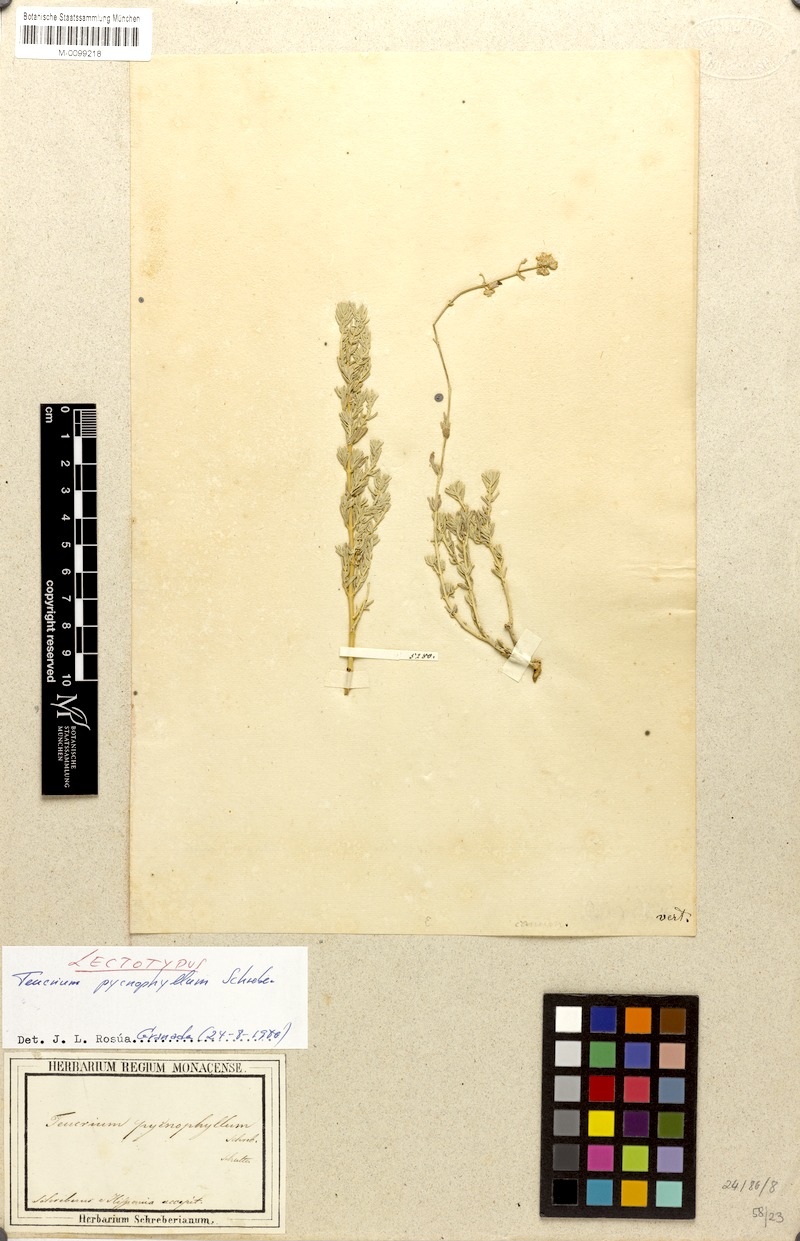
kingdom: Plantae
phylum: Tracheophyta
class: Magnoliopsida
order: Lamiales
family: Lamiaceae
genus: Teucrium
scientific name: Teucrium polium
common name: Poley
